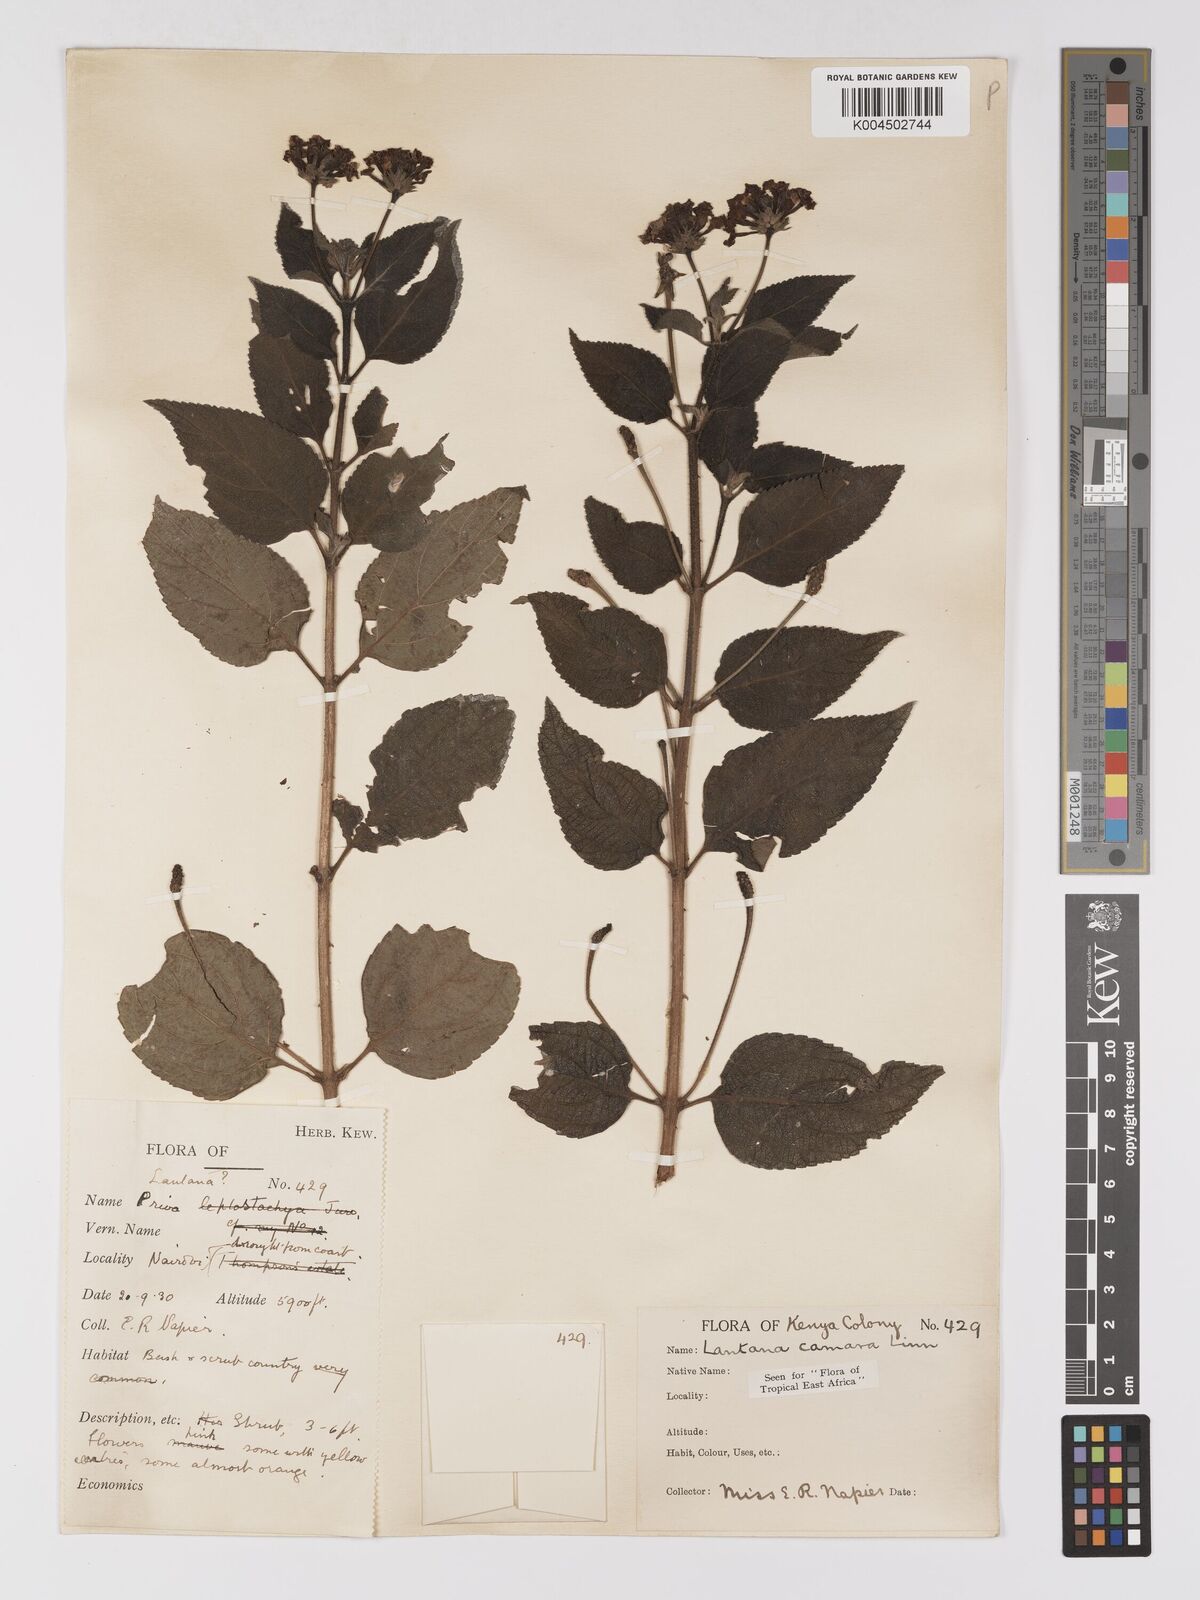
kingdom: Plantae
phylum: Tracheophyta
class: Magnoliopsida
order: Lamiales
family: Verbenaceae
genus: Lantana
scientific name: Lantana camara
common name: Lantana
